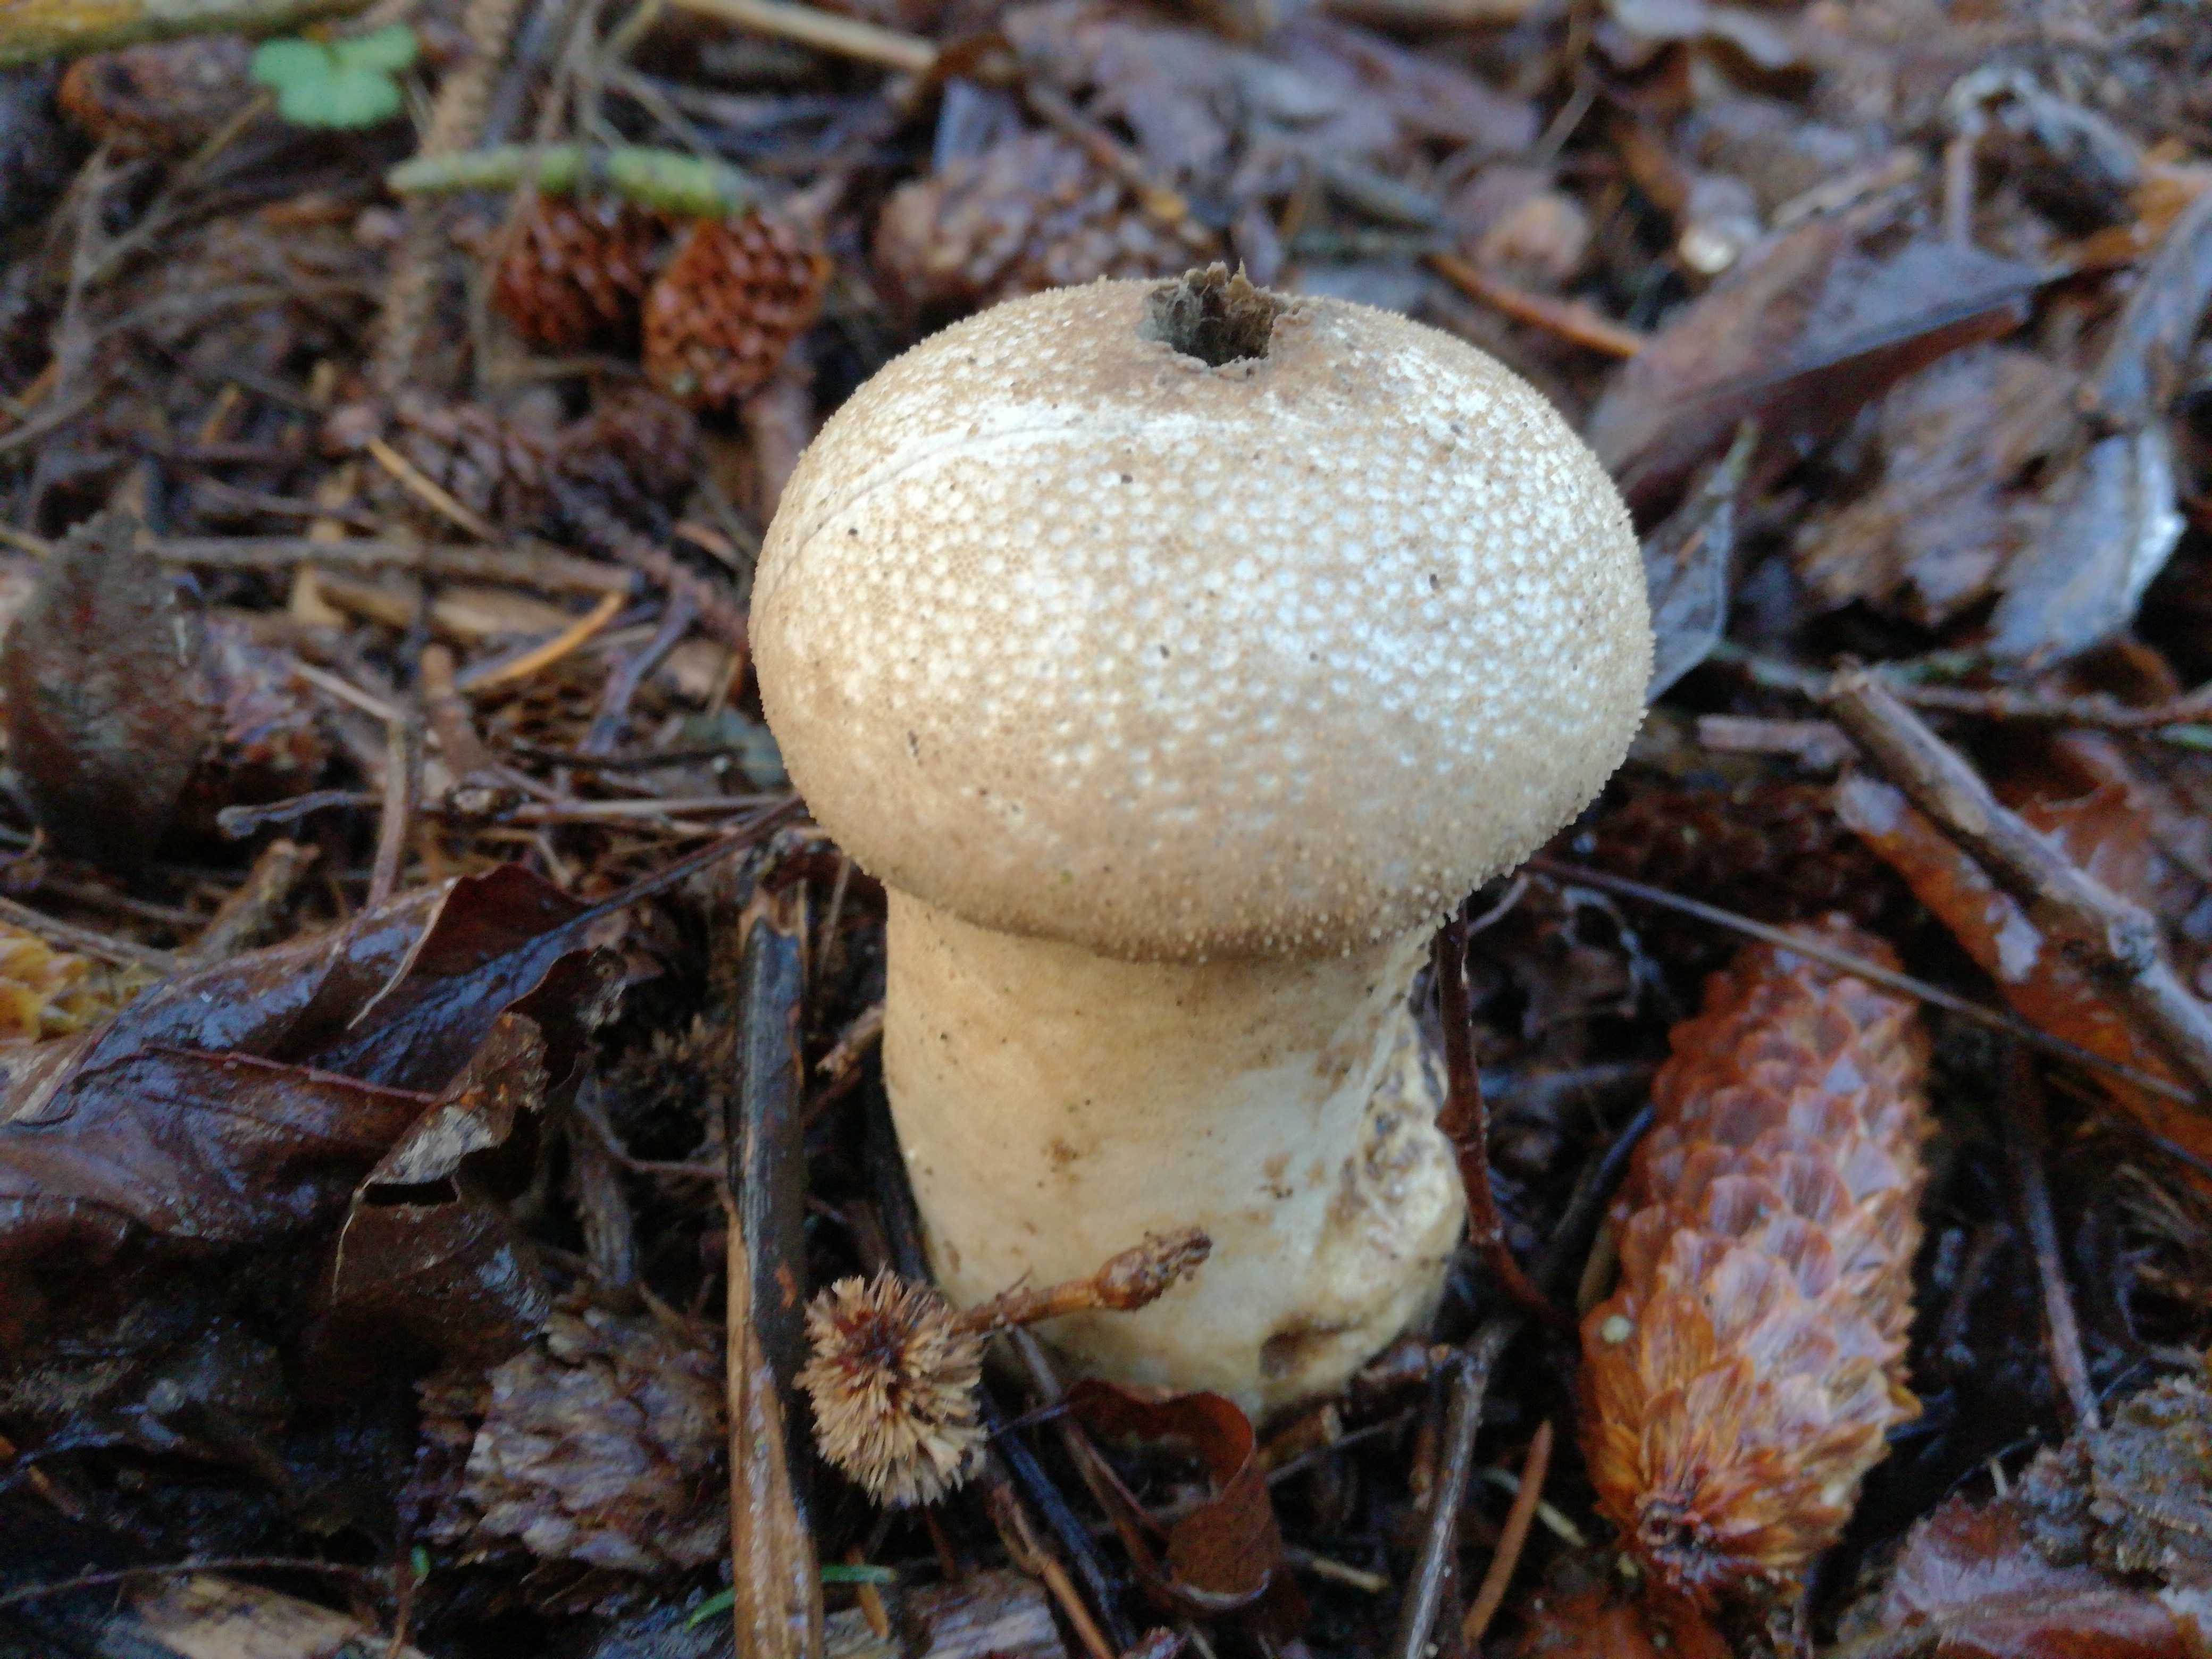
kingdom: Fungi
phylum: Basidiomycota
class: Agaricomycetes
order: Agaricales
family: Lycoperdaceae
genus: Lycoperdon
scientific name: Lycoperdon perlatum
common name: krystal-støvbold
